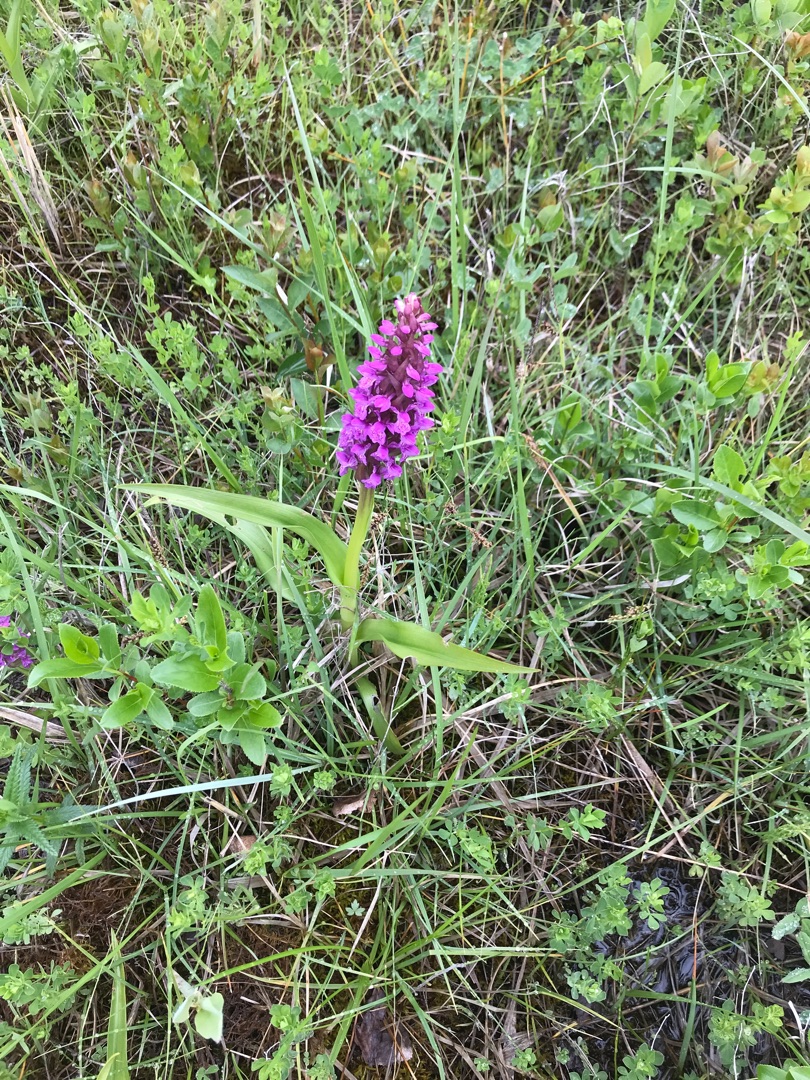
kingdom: Plantae
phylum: Tracheophyta
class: Liliopsida
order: Asparagales
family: Orchidaceae
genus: Dactylorhiza
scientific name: Dactylorhiza incarnata
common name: Kødfarvet gøgeurt
